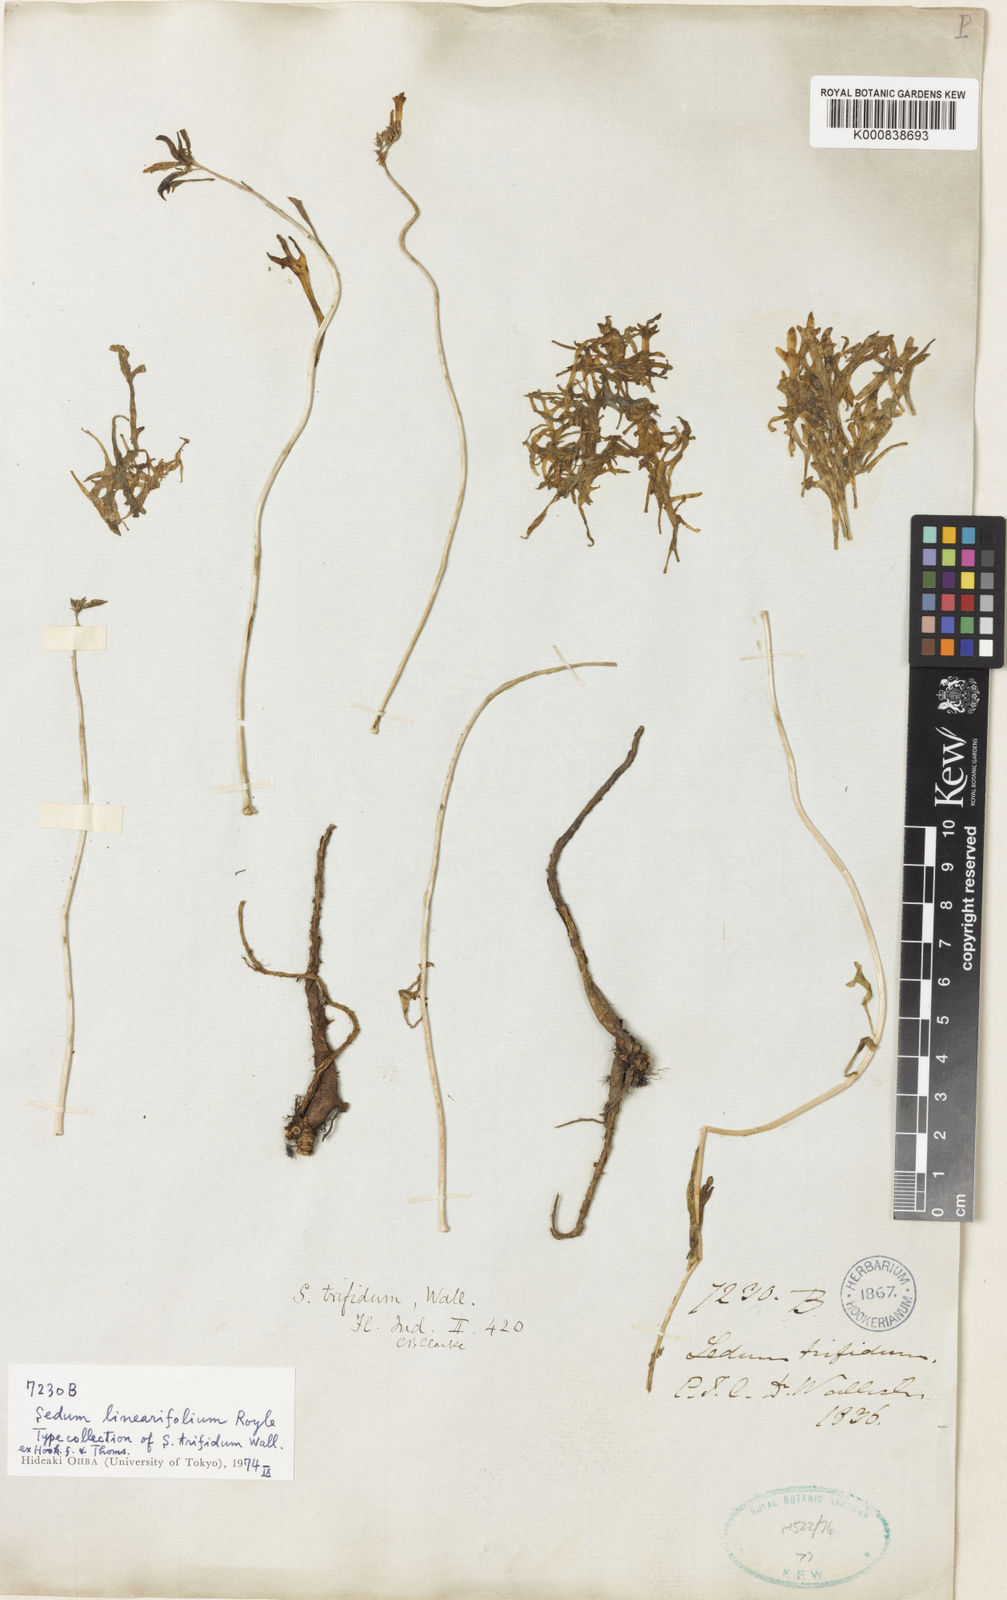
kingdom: Plantae
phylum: Tracheophyta
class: Magnoliopsida
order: Saxifragales
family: Crassulaceae
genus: Rhodiola
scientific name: Rhodiola sinuata
